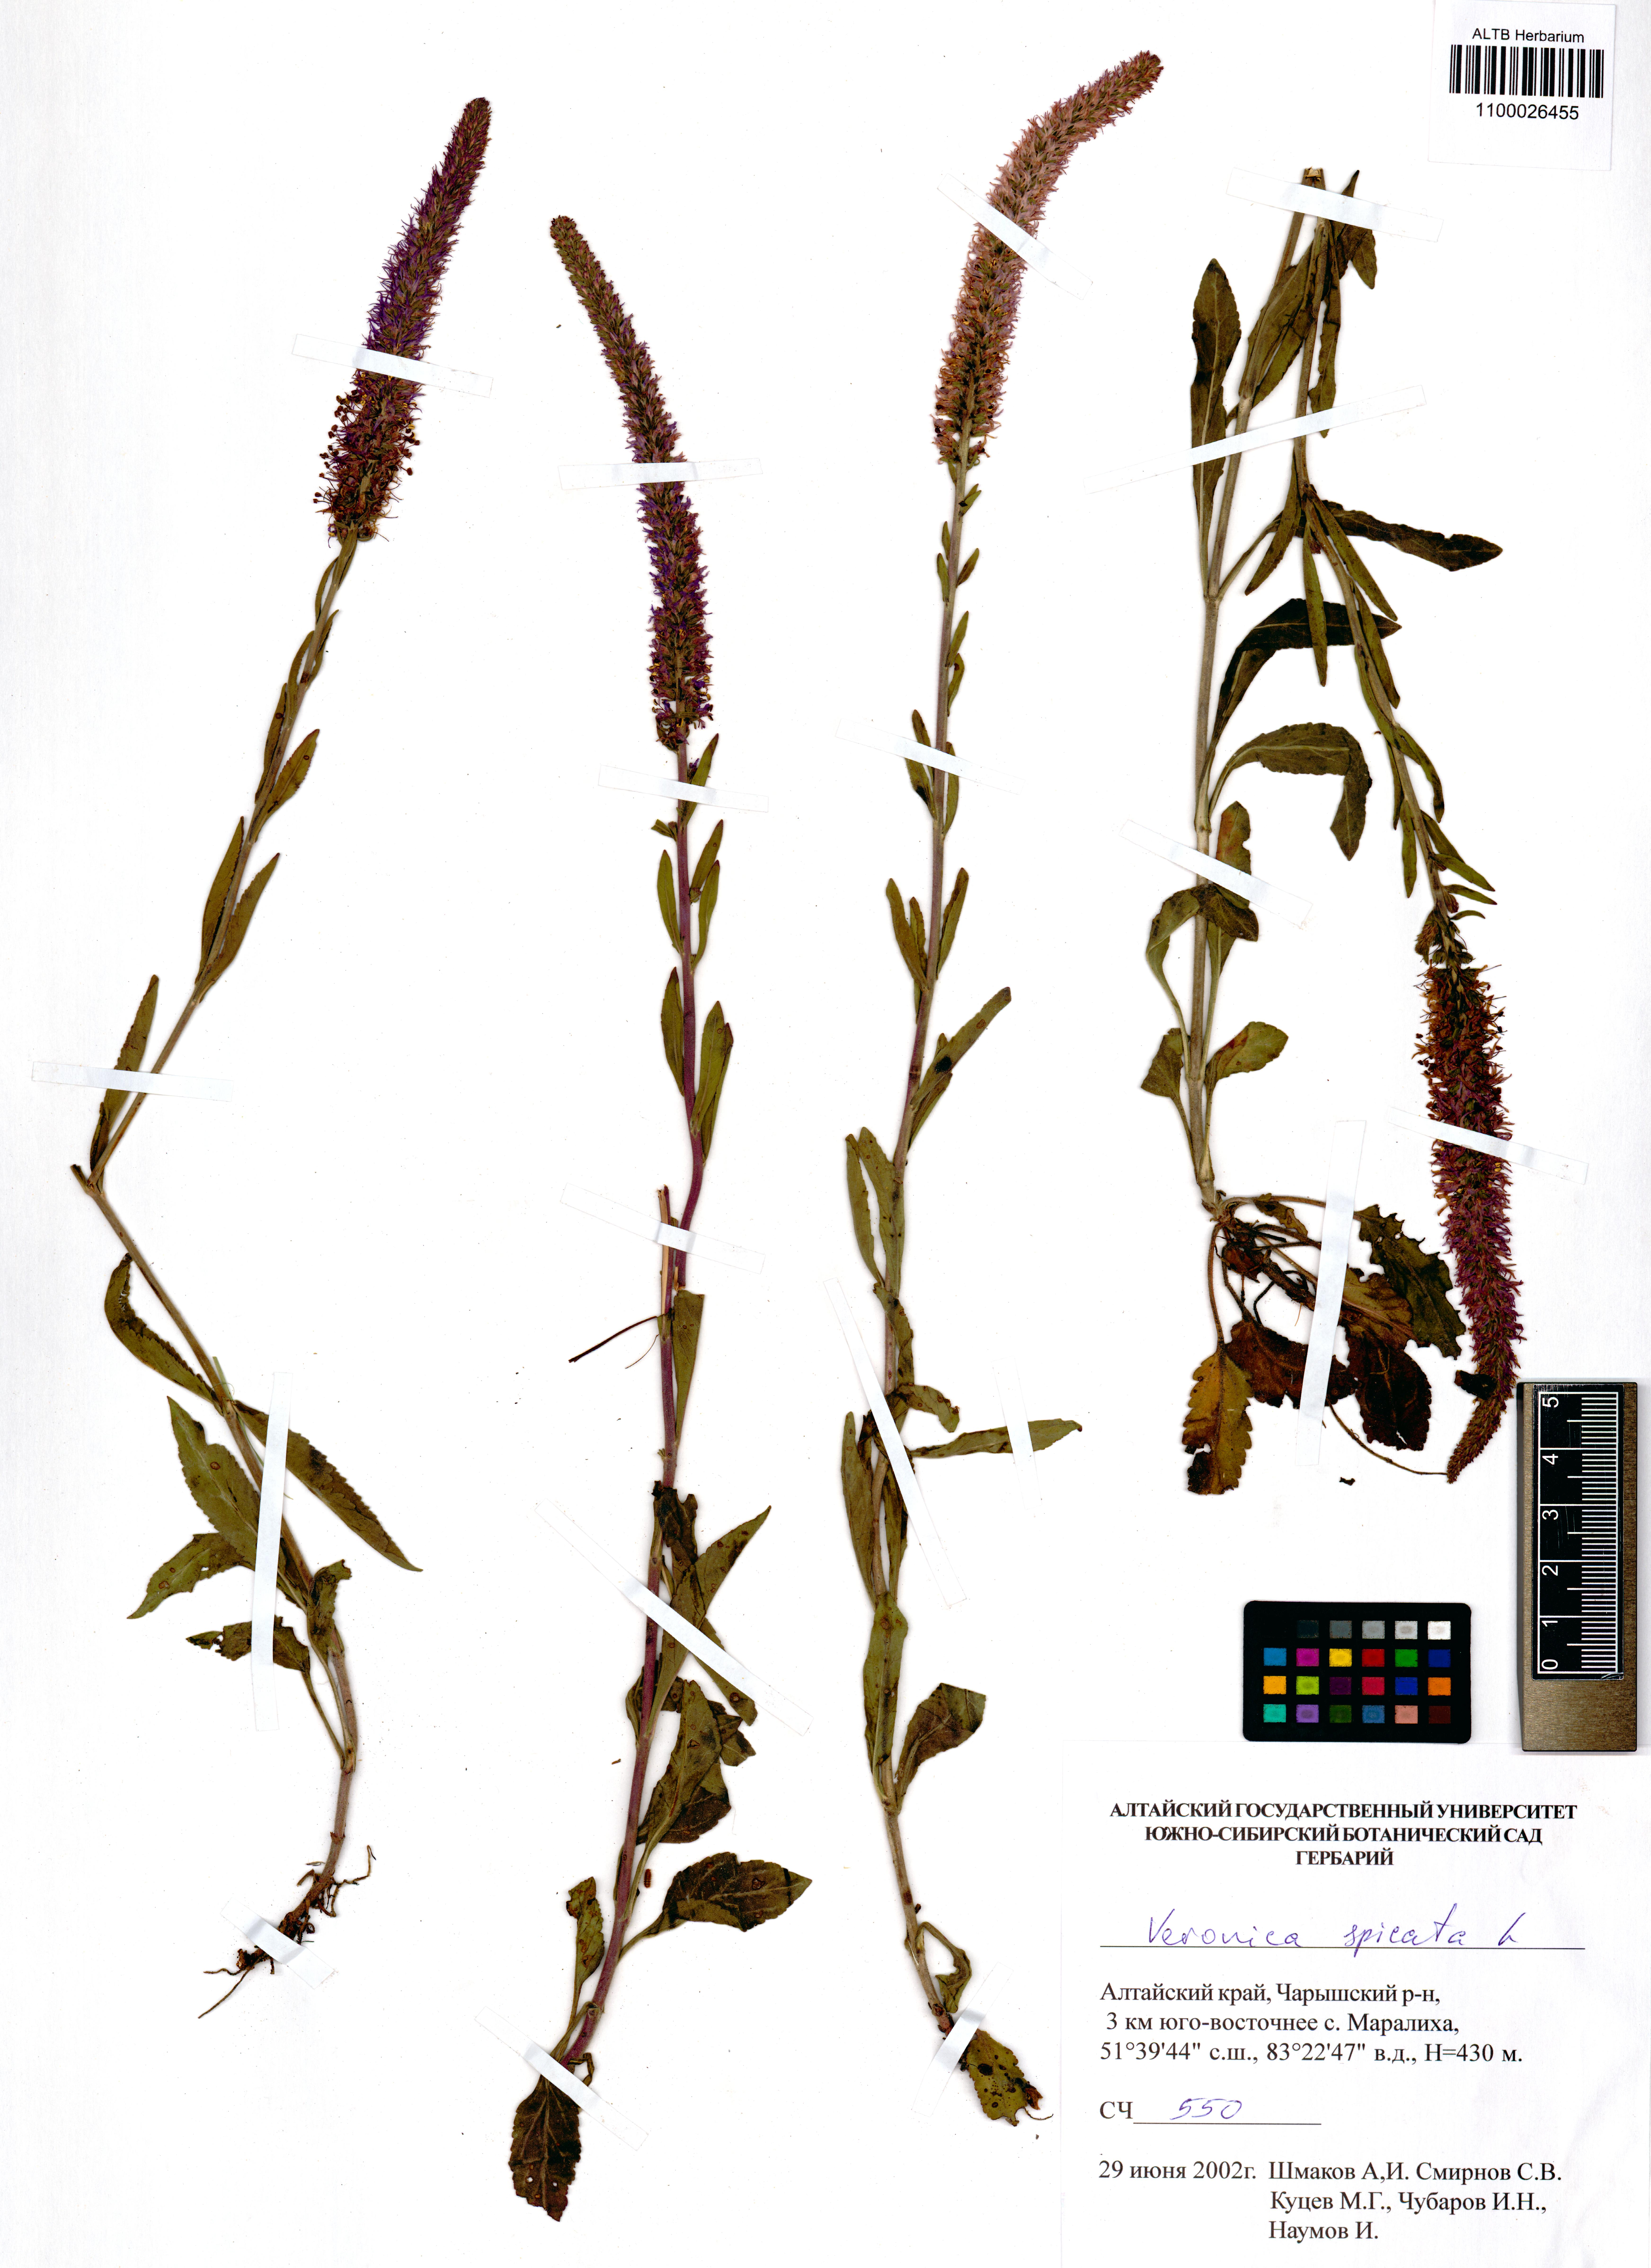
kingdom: Plantae
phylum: Tracheophyta
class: Magnoliopsida
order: Lamiales
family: Plantaginaceae
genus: Veronica
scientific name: Veronica spicata
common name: Spiked speedwell
